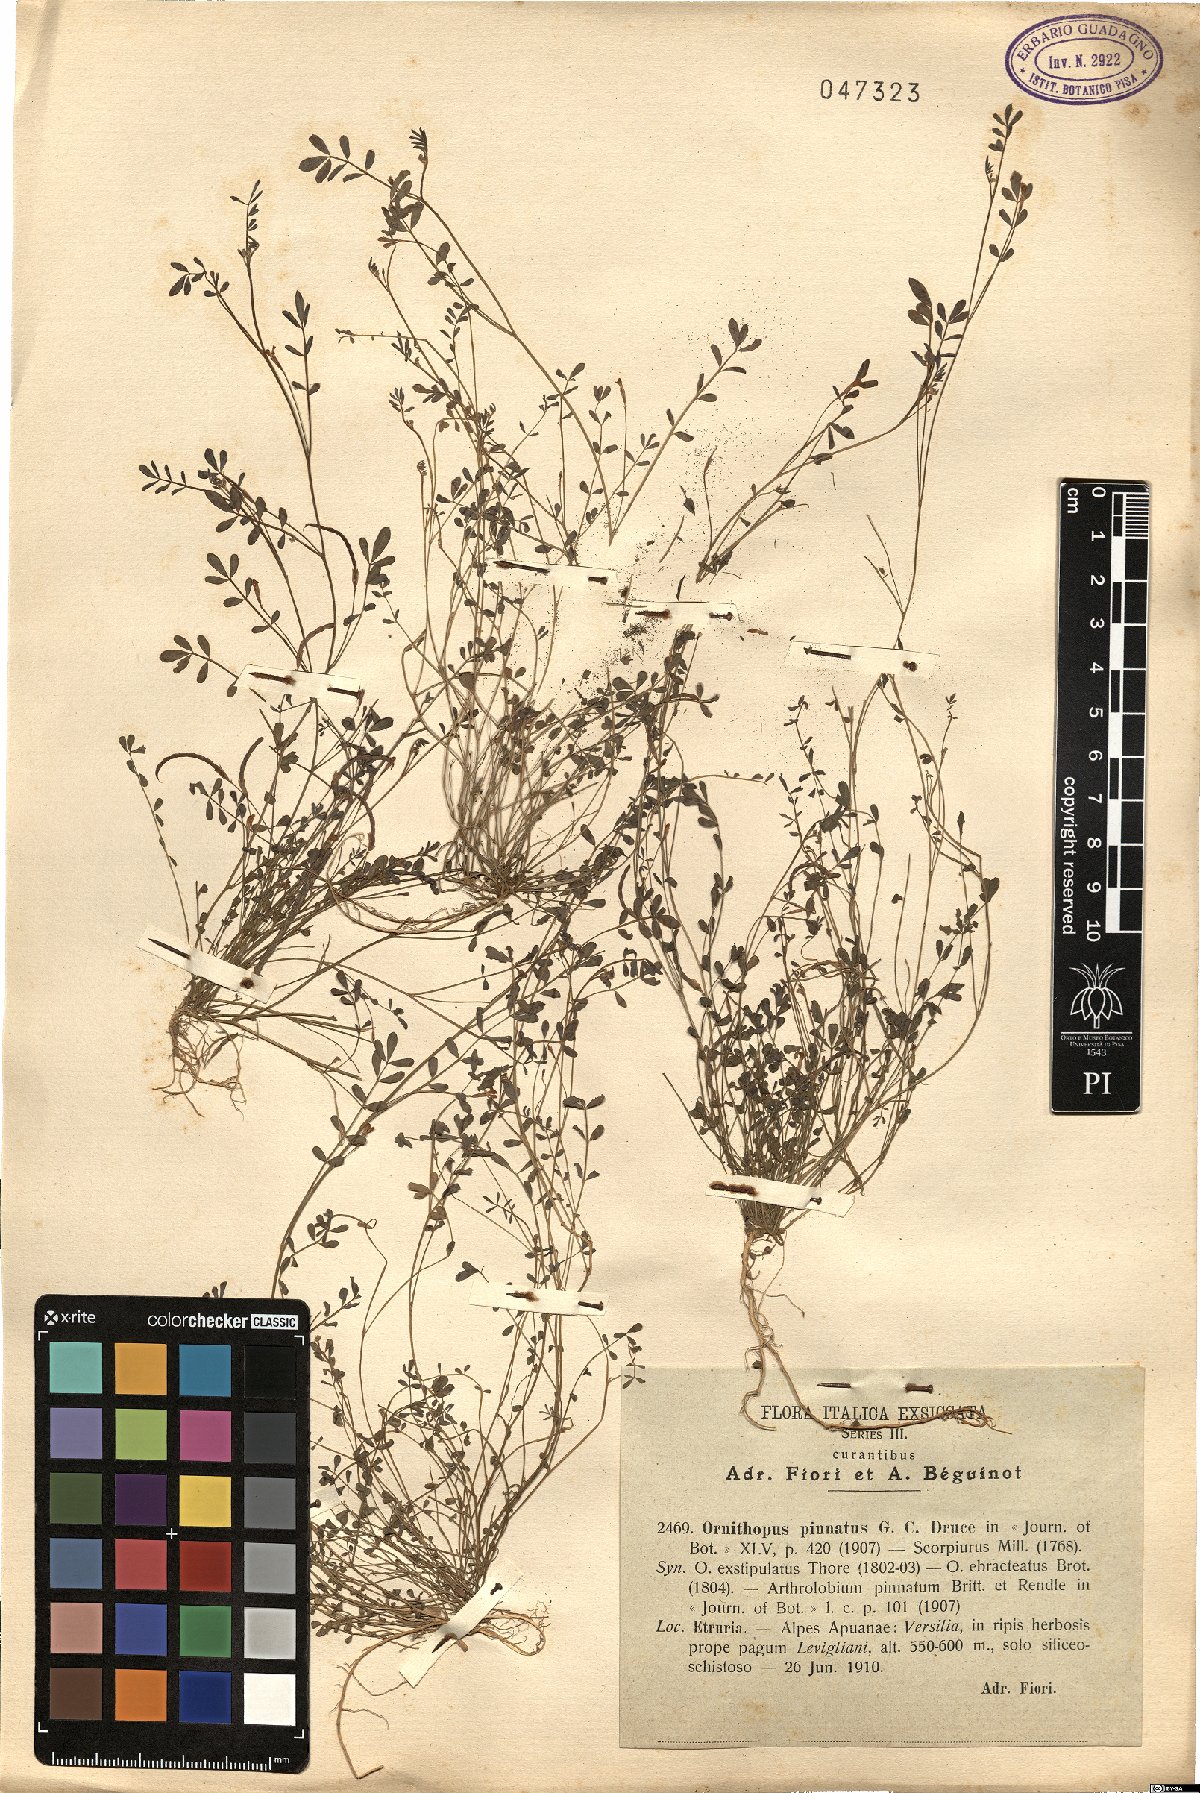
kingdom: Plantae
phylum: Tracheophyta
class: Magnoliopsida
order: Fabales
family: Fabaceae
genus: Ornithopus
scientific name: Ornithopus pinnatus
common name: Orange bird's-foot
